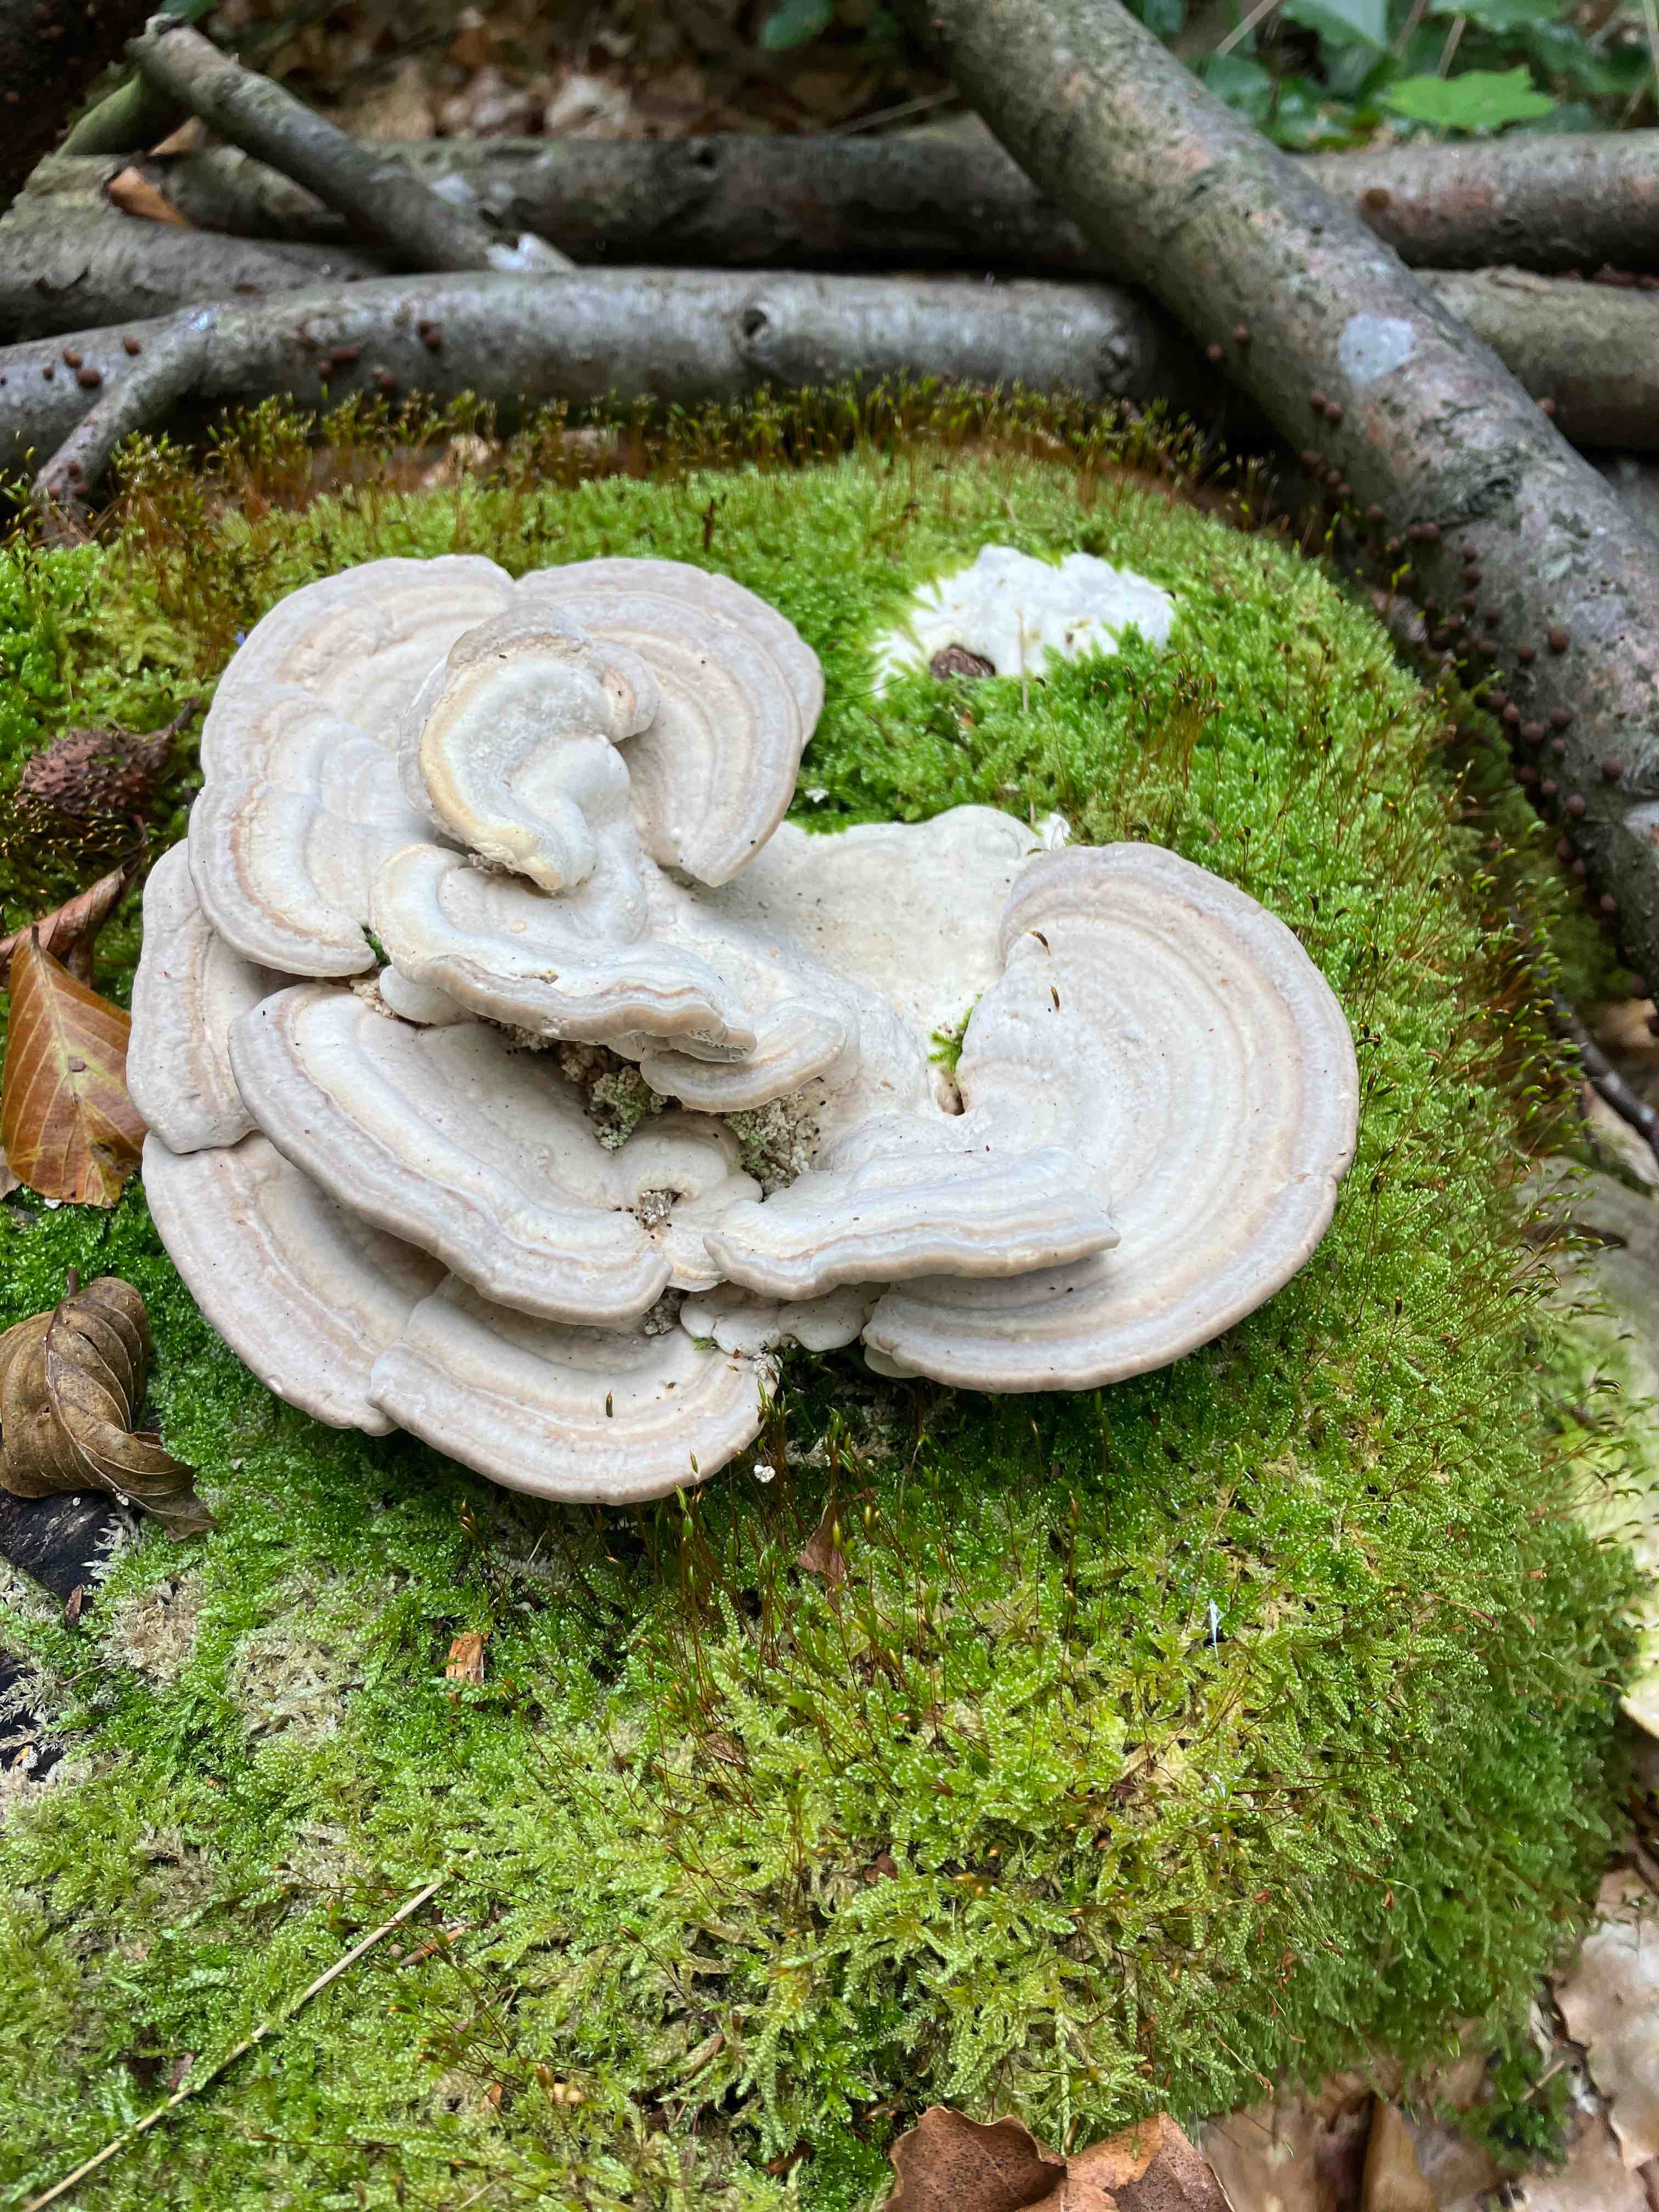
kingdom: Fungi
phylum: Basidiomycota
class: Agaricomycetes
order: Polyporales
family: Polyporaceae
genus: Trametes
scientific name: Trametes gibbosa
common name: puklet læderporesvamp
